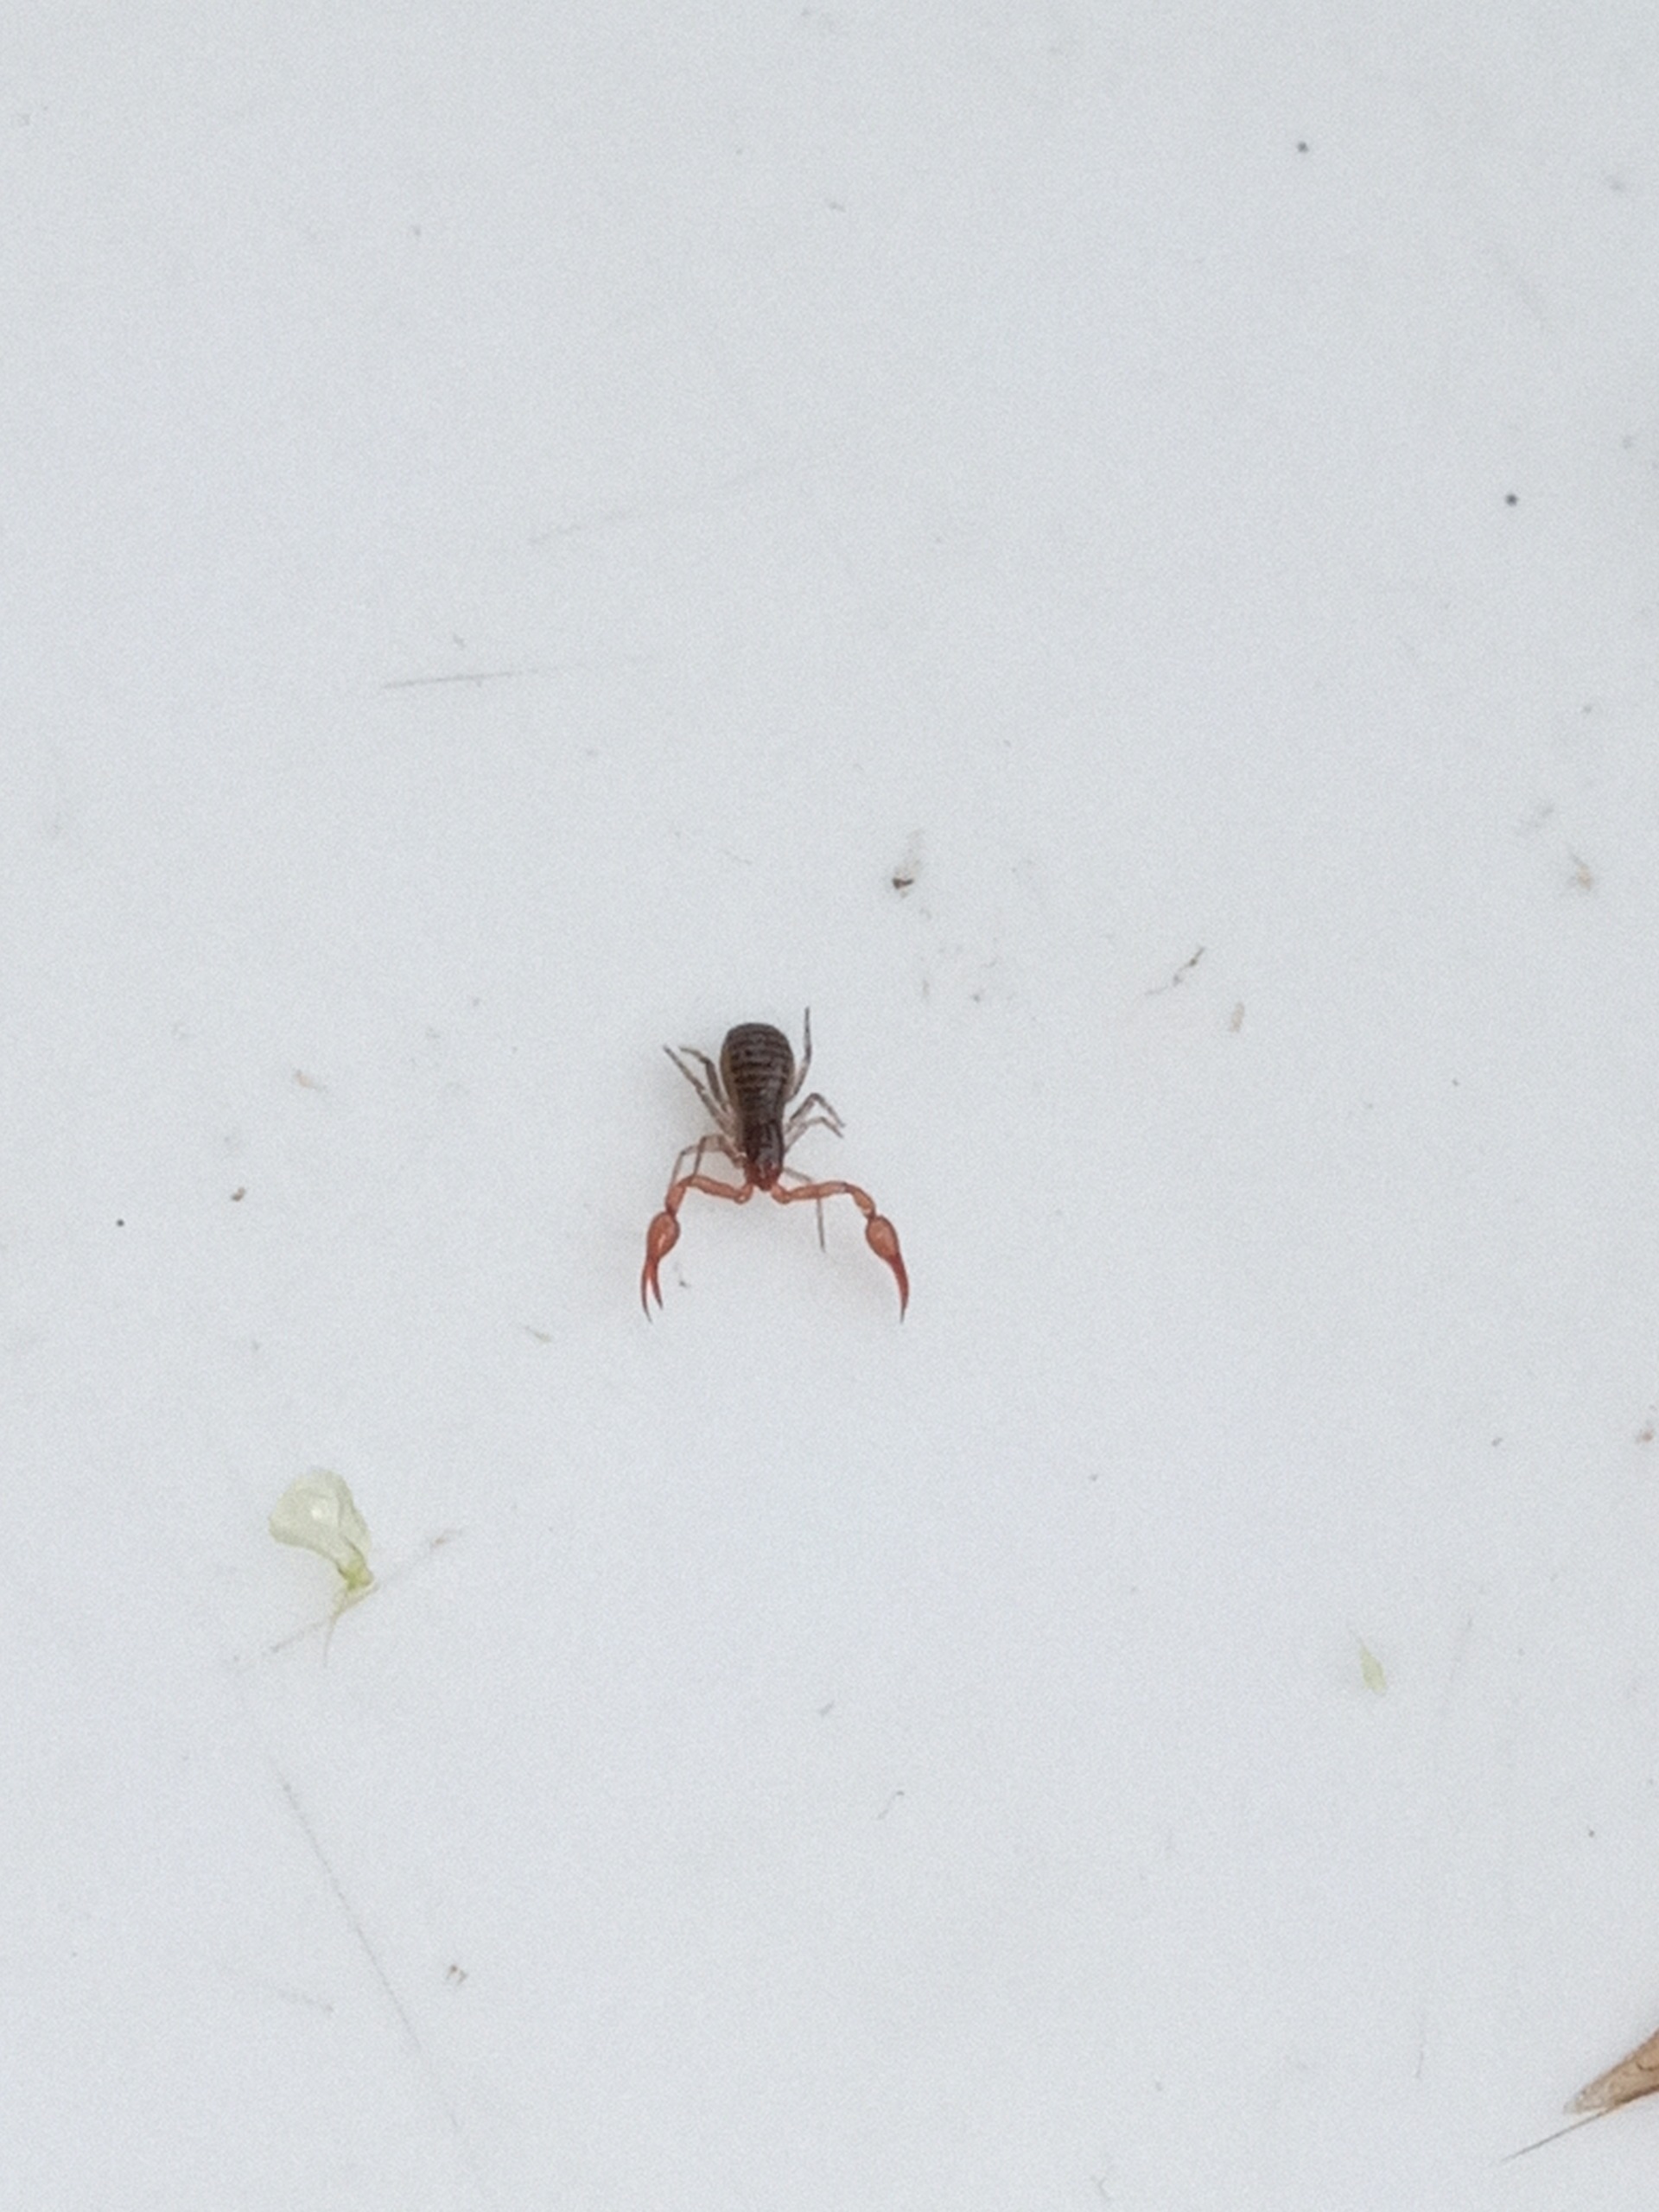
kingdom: Animalia
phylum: Arthropoda
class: Arachnida
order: Pseudoscorpiones
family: Neobisiidae
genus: Neobisium
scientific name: Neobisium carcinoides
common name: Almindelig mosskorpion
